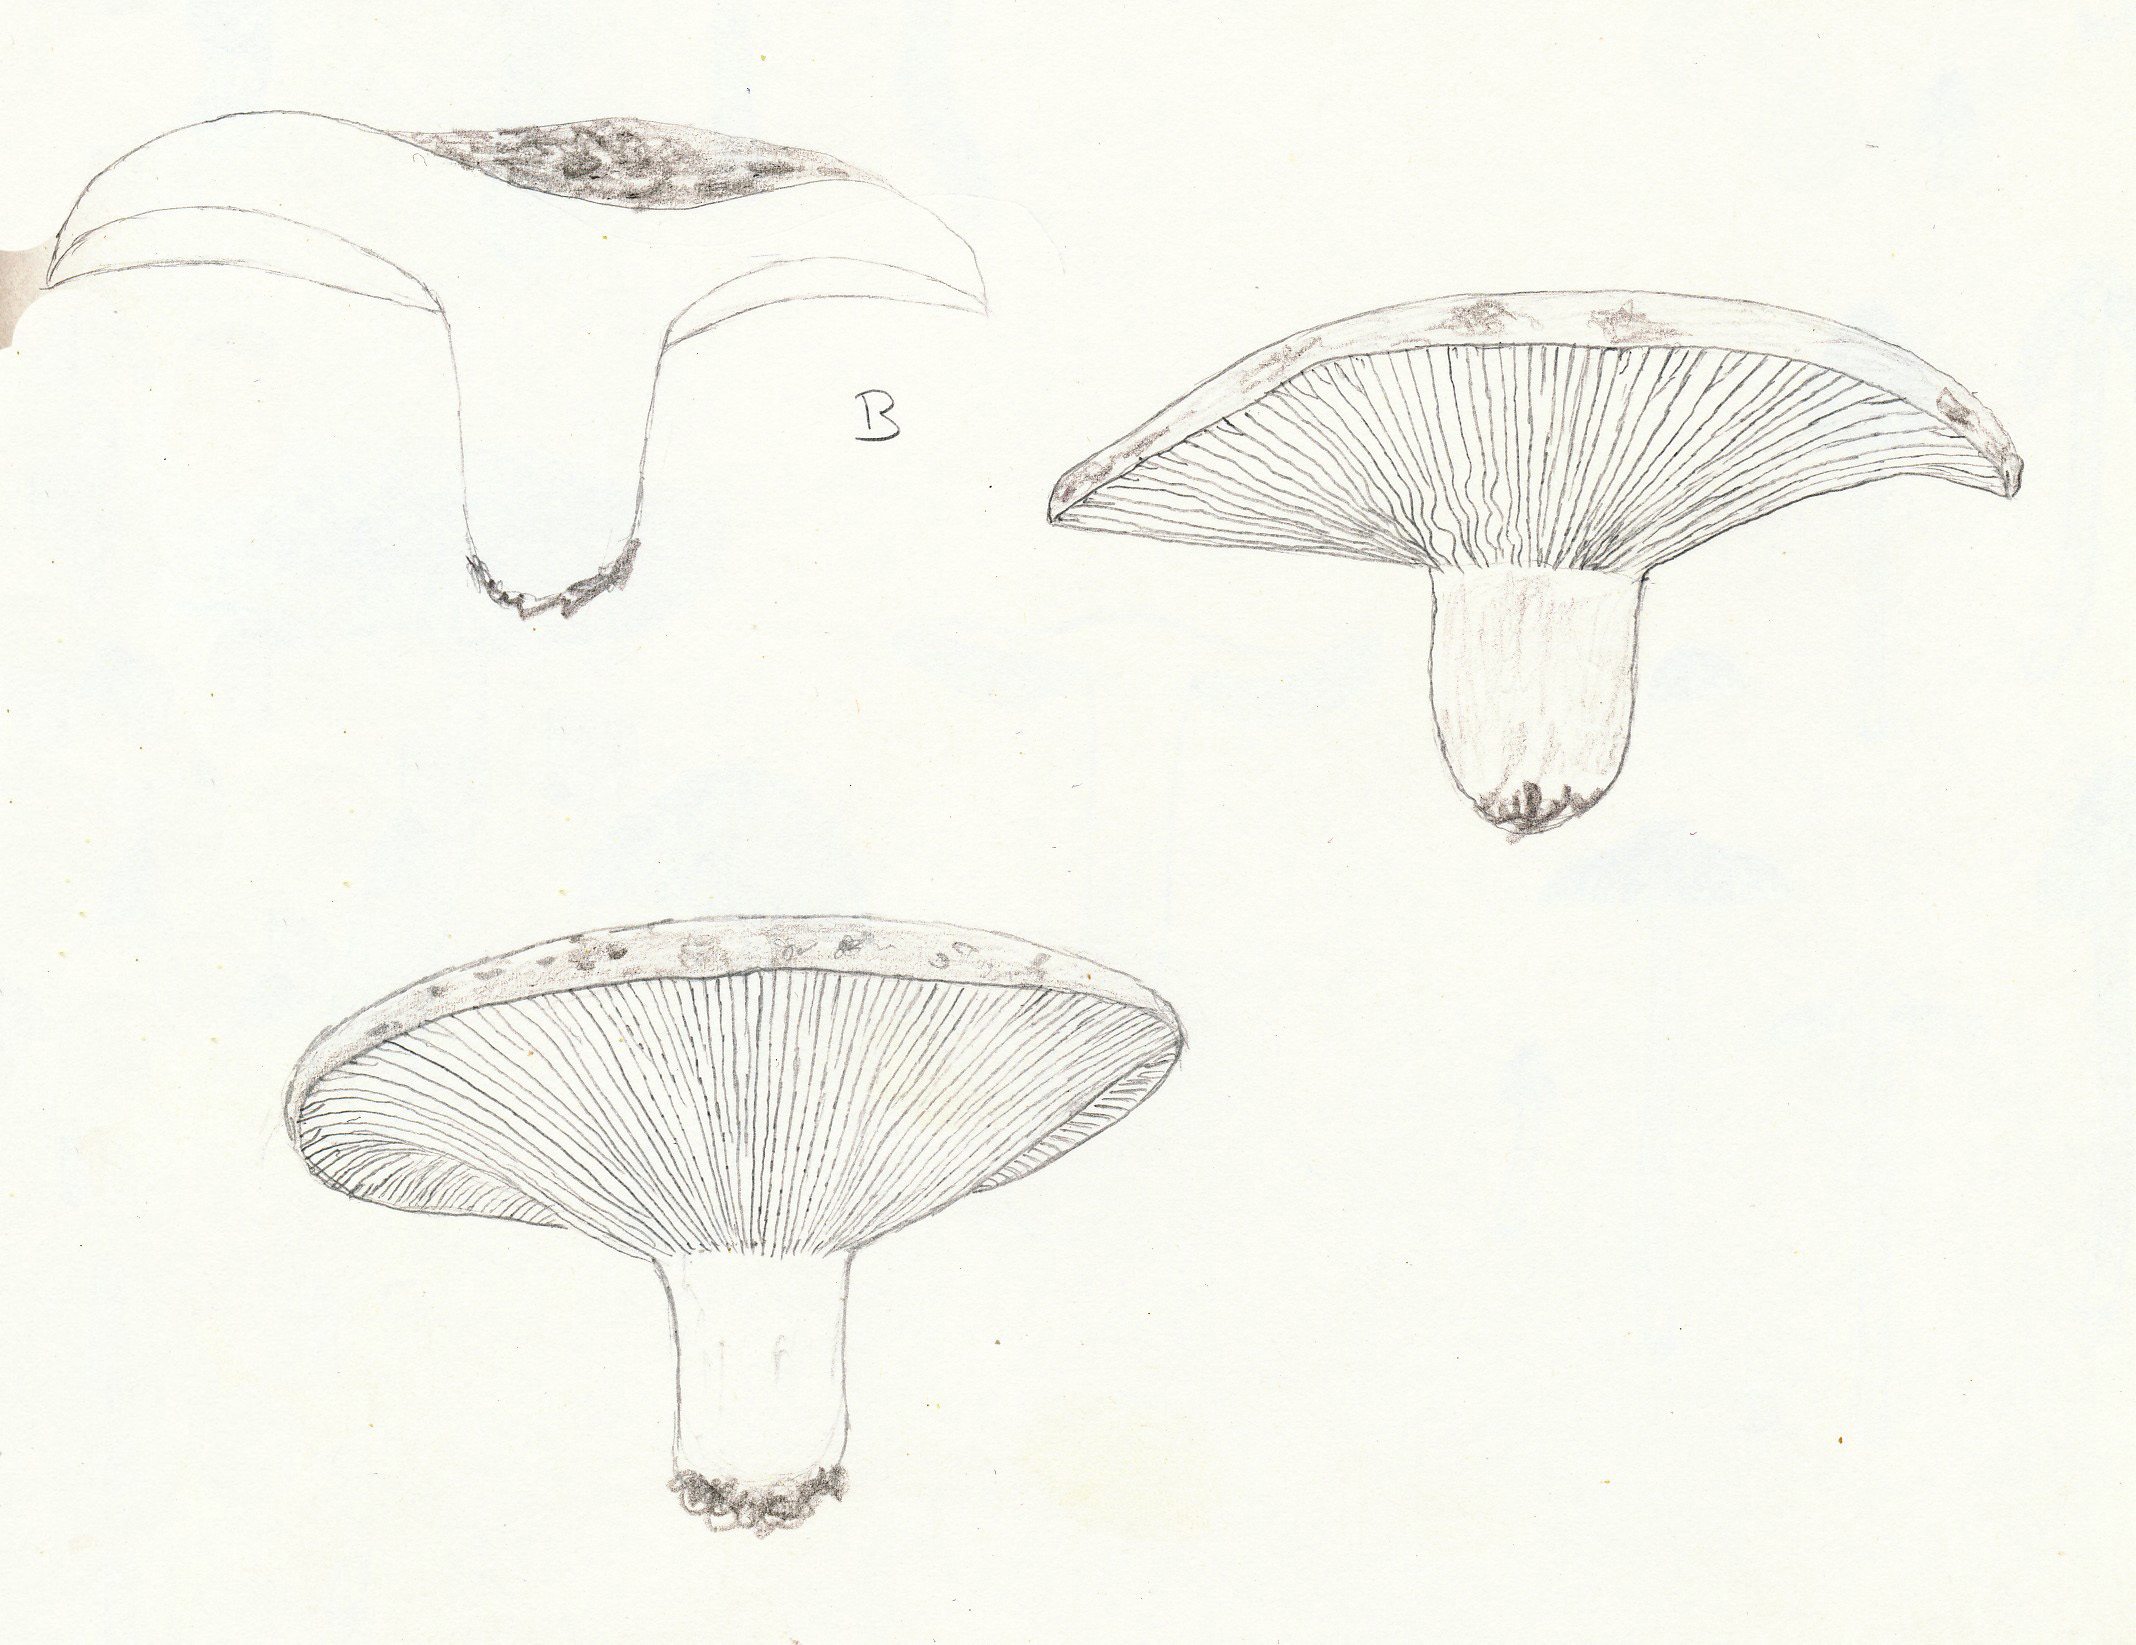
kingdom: Fungi
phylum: Basidiomycota
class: Agaricomycetes
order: Russulales
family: Russulaceae
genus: Russula
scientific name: Russula delica
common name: almindelig tragt-skørhat
